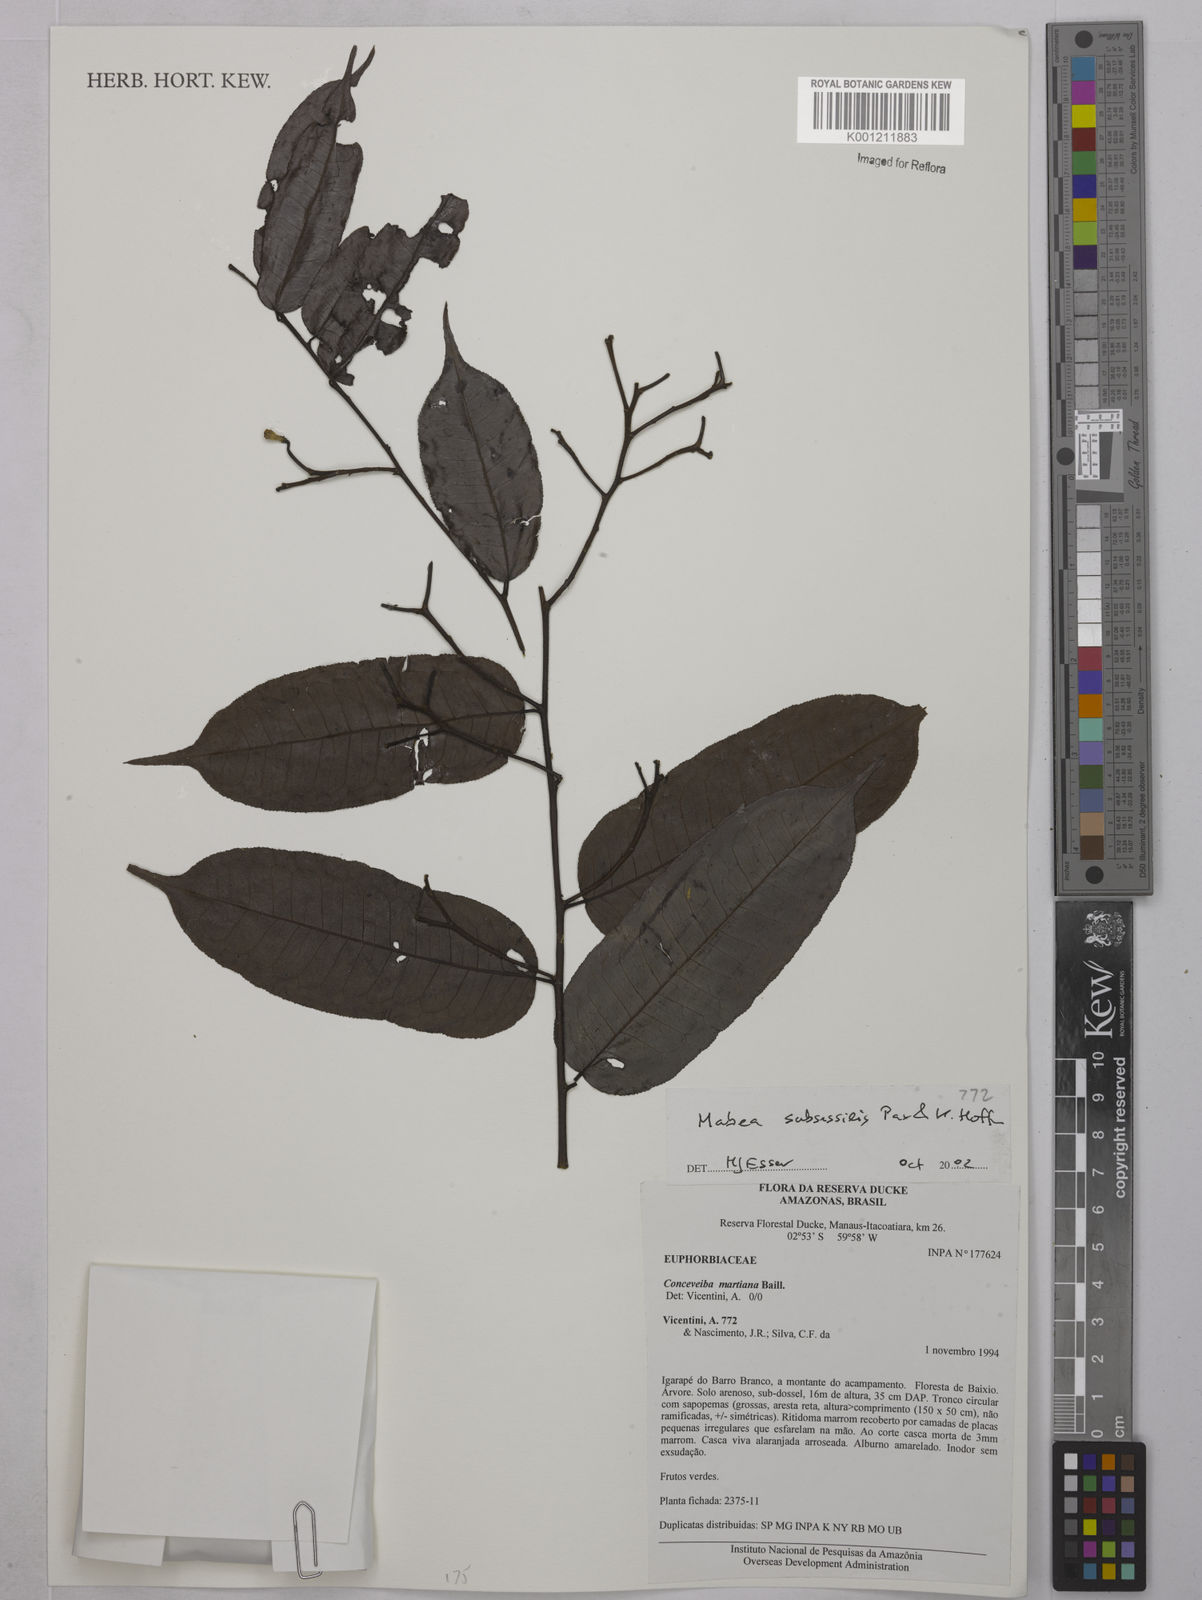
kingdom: Plantae
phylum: Tracheophyta
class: Magnoliopsida
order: Malpighiales
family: Euphorbiaceae
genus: Mabea
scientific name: Mabea subsessilis
